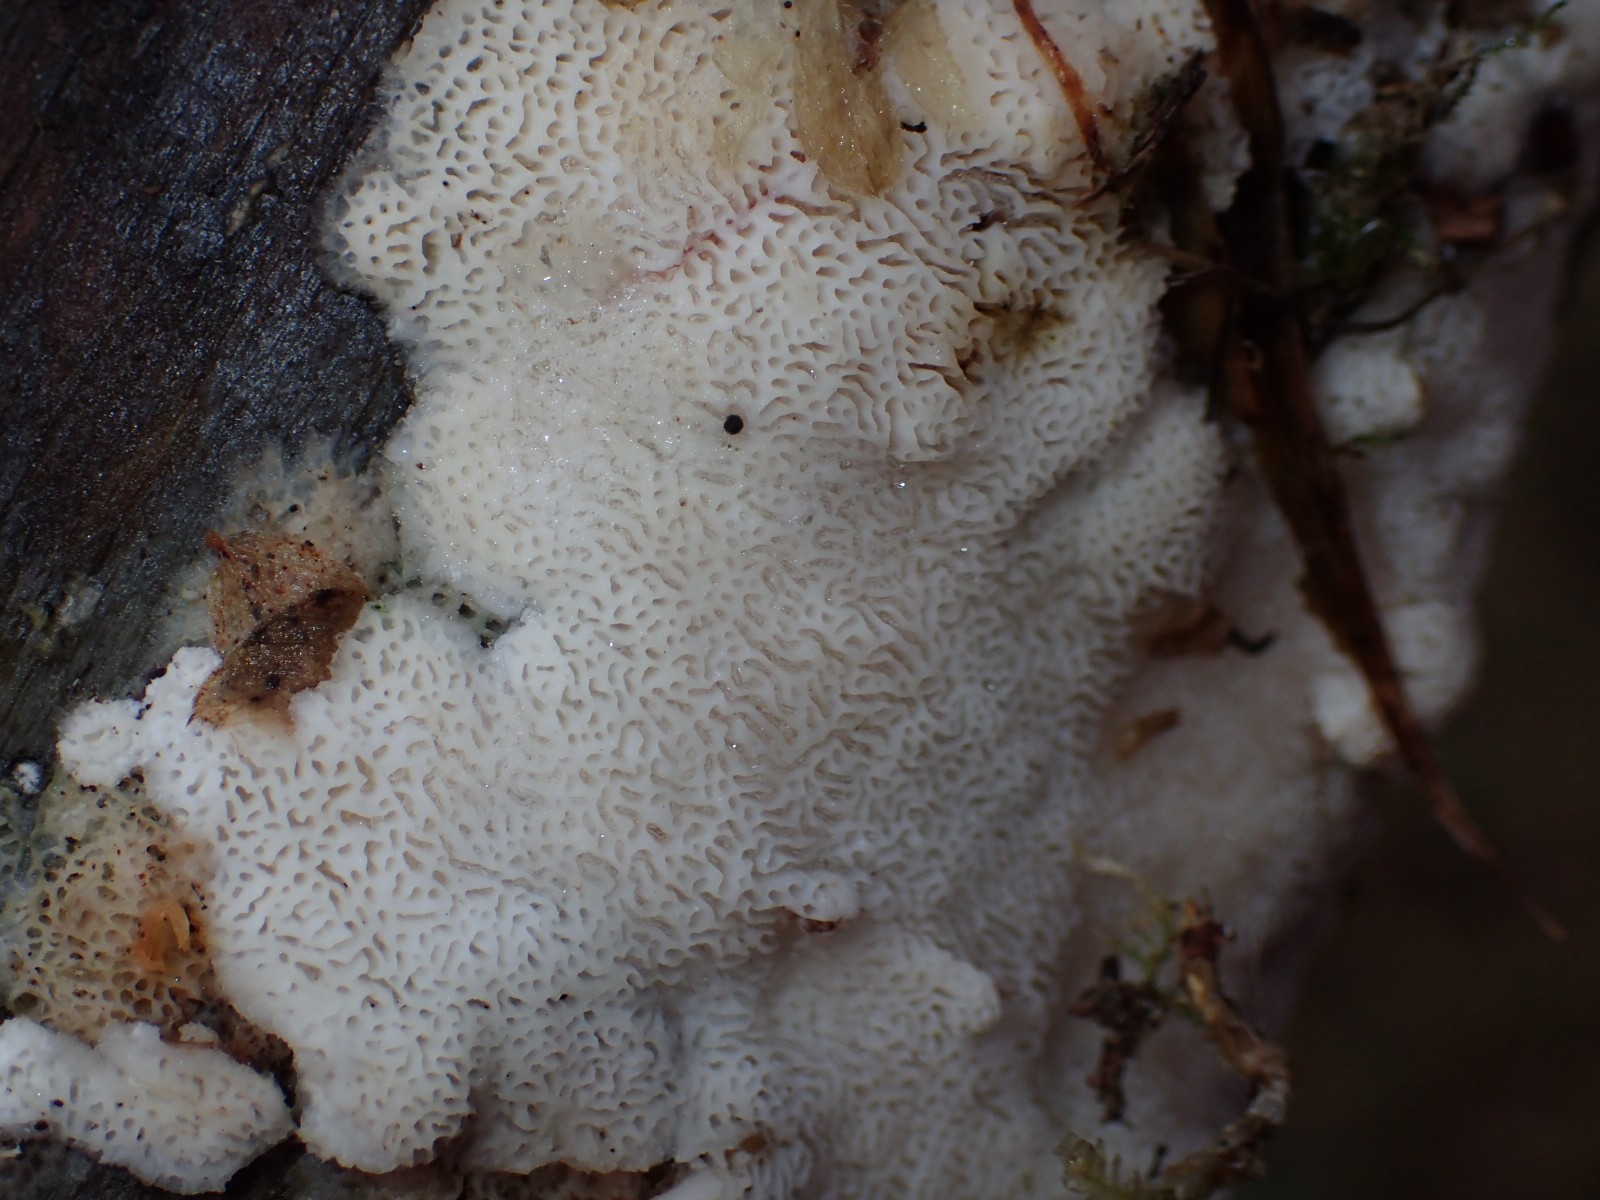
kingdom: Fungi
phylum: Basidiomycota
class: Agaricomycetes
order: Polyporales
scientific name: Polyporales
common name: poresvampordenen
